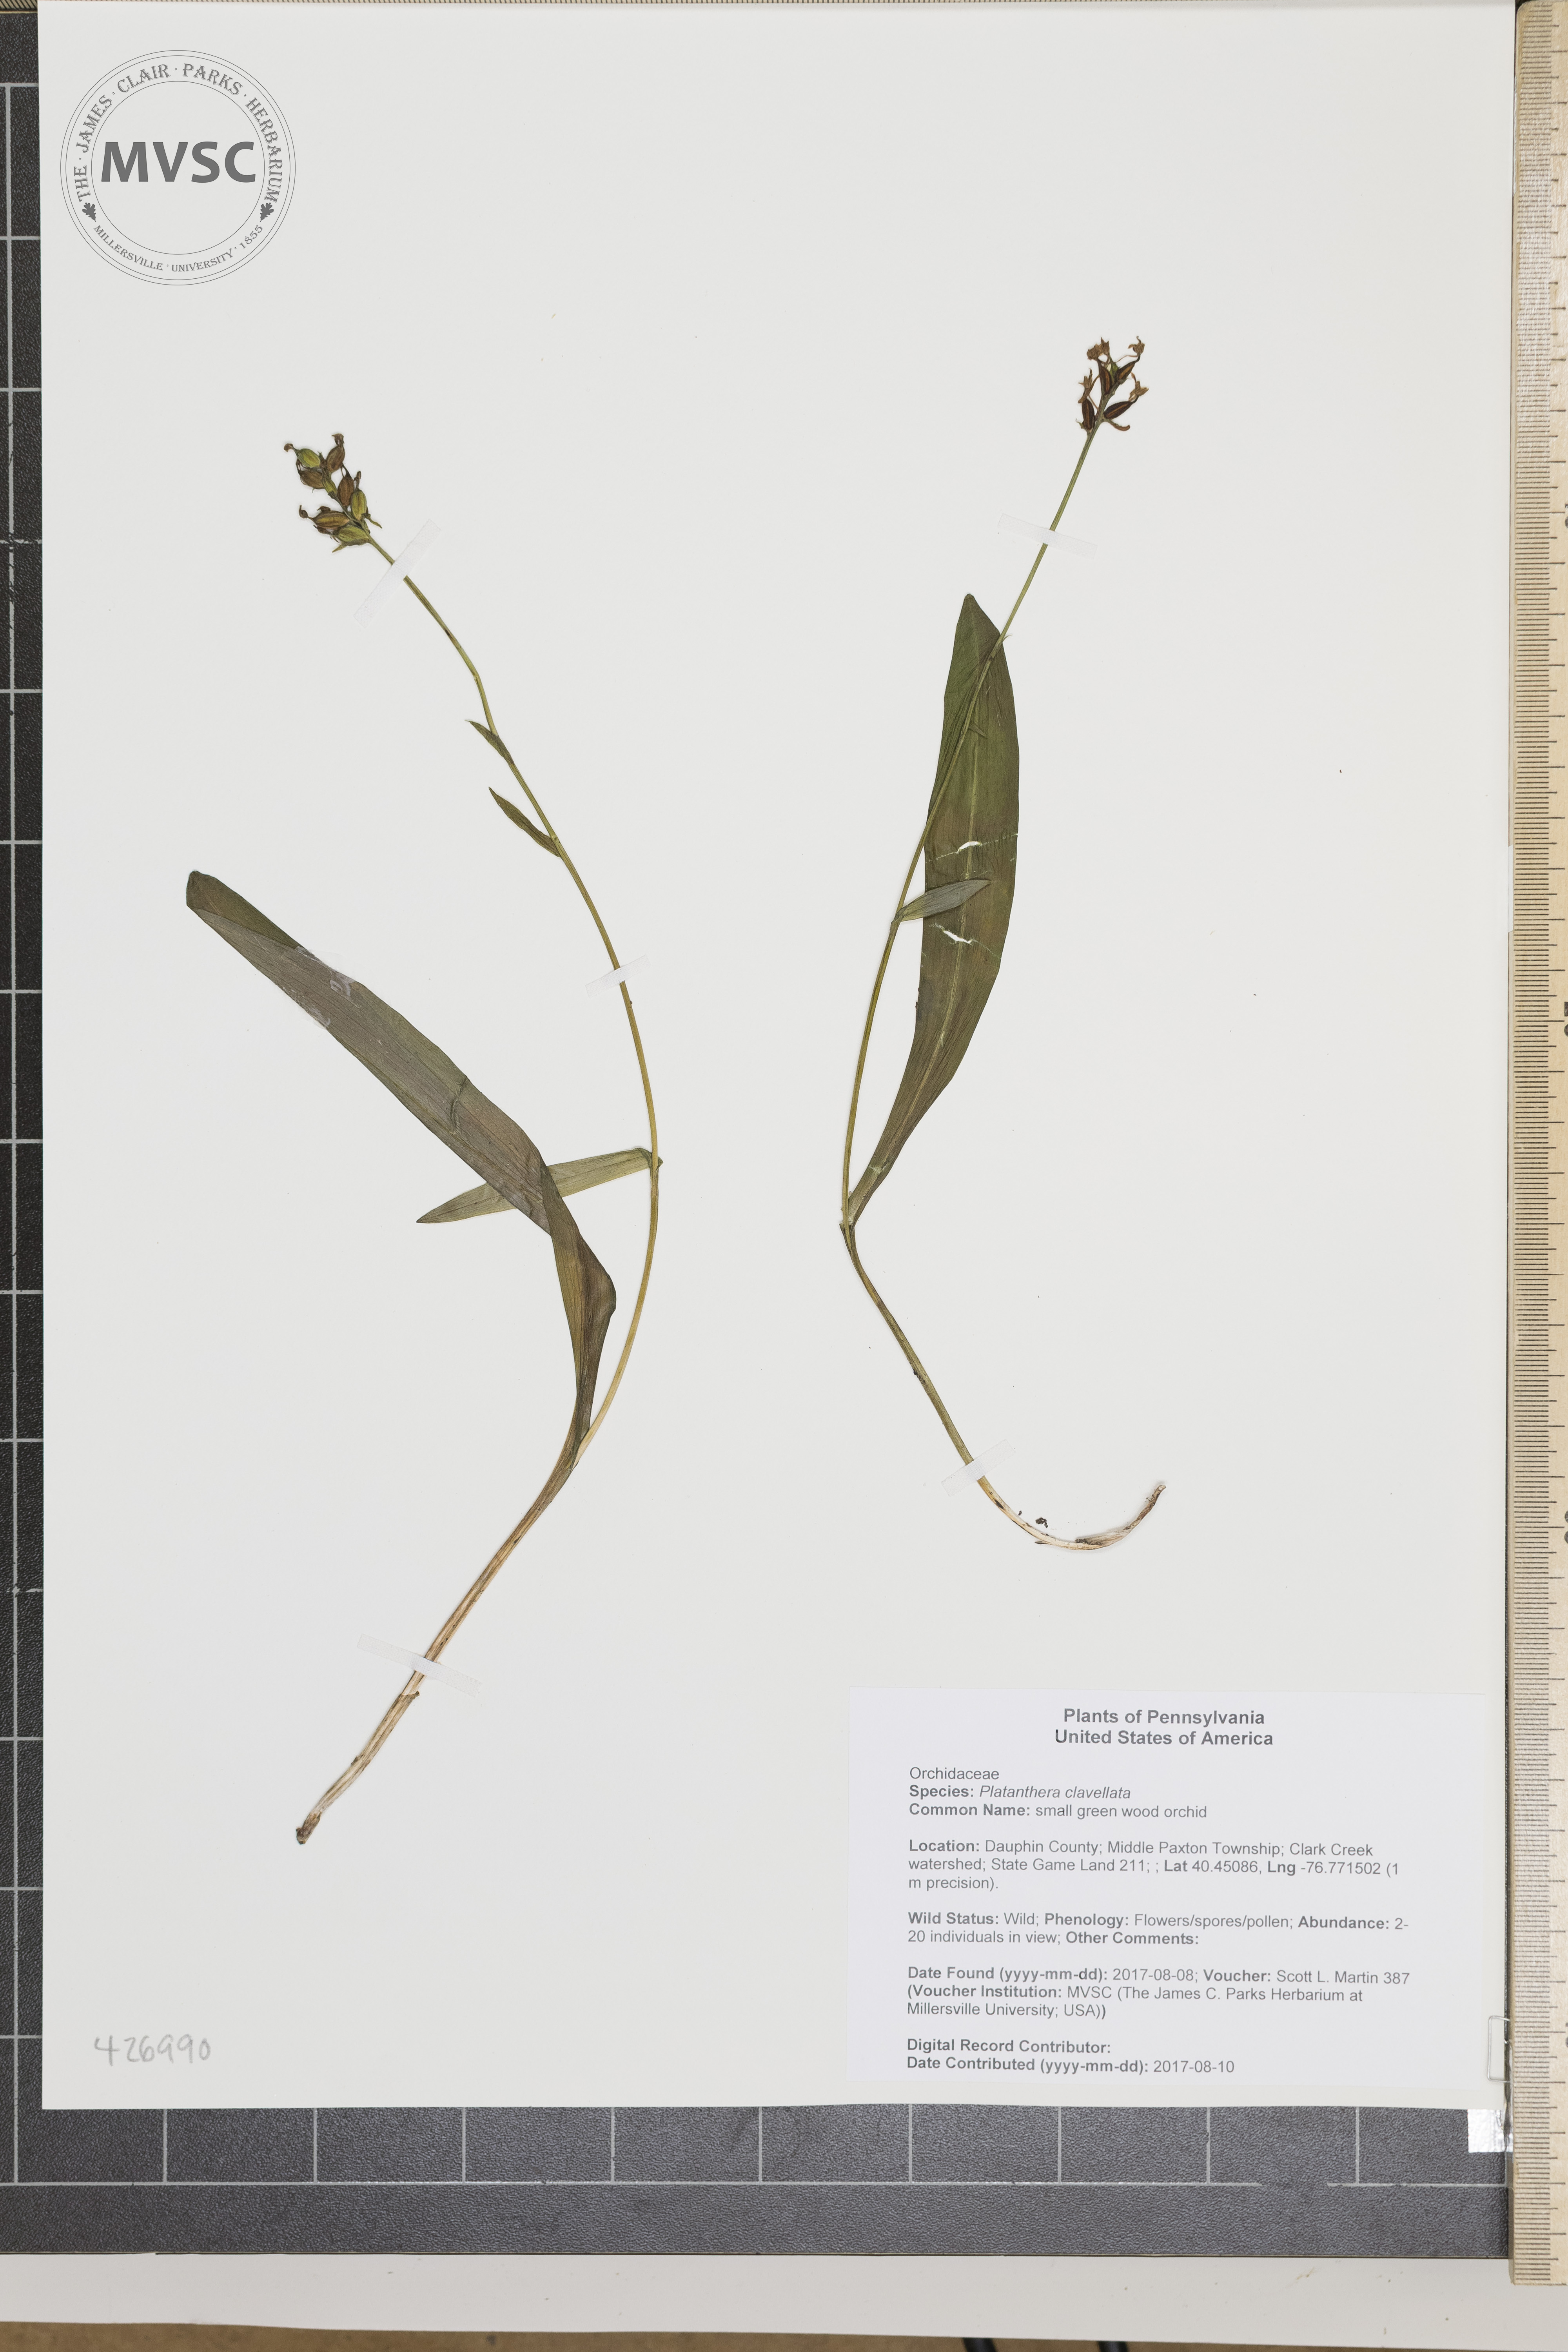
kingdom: Plantae
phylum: Tracheophyta
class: Liliopsida
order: Asparagales
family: Orchidaceae
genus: Platanthera
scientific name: Platanthera clavellata
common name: small green wood orchid
